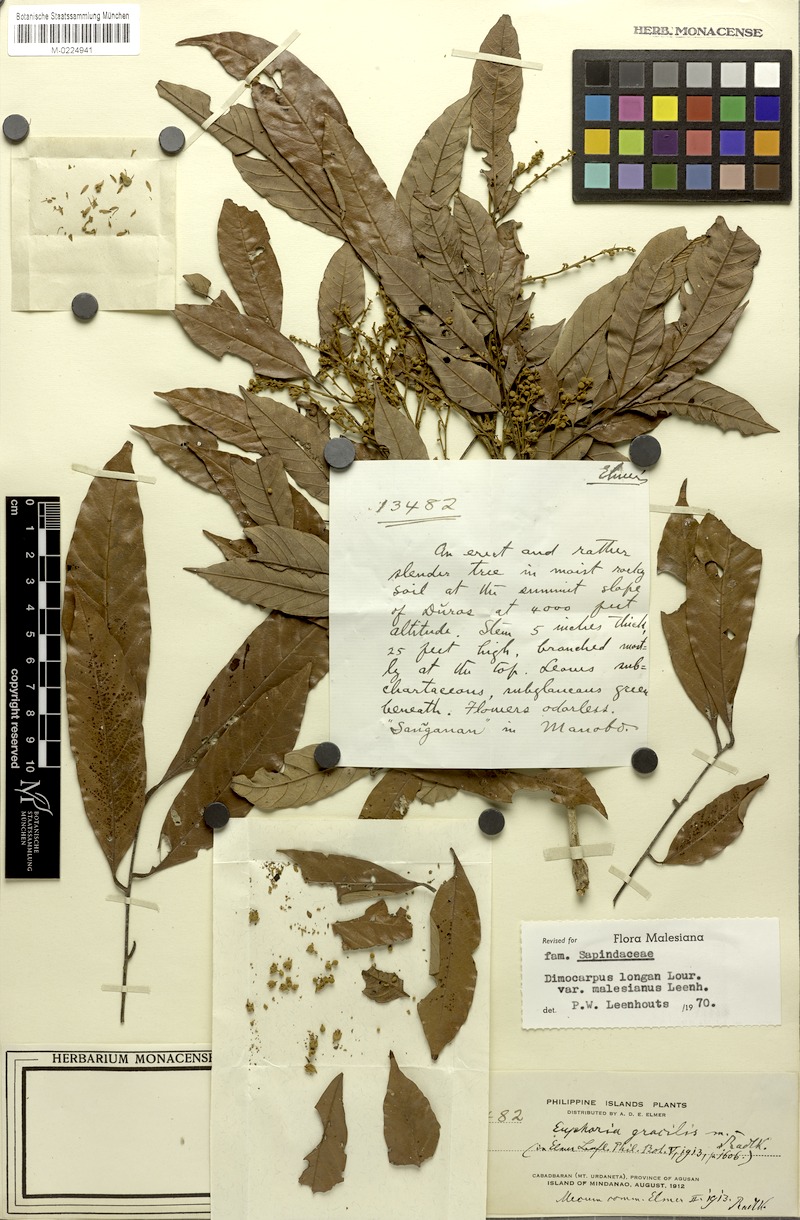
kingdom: Plantae
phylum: Tracheophyta
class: Magnoliopsida
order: Sapindales
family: Sapindaceae
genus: Dimocarpus
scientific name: Dimocarpus malesianus
